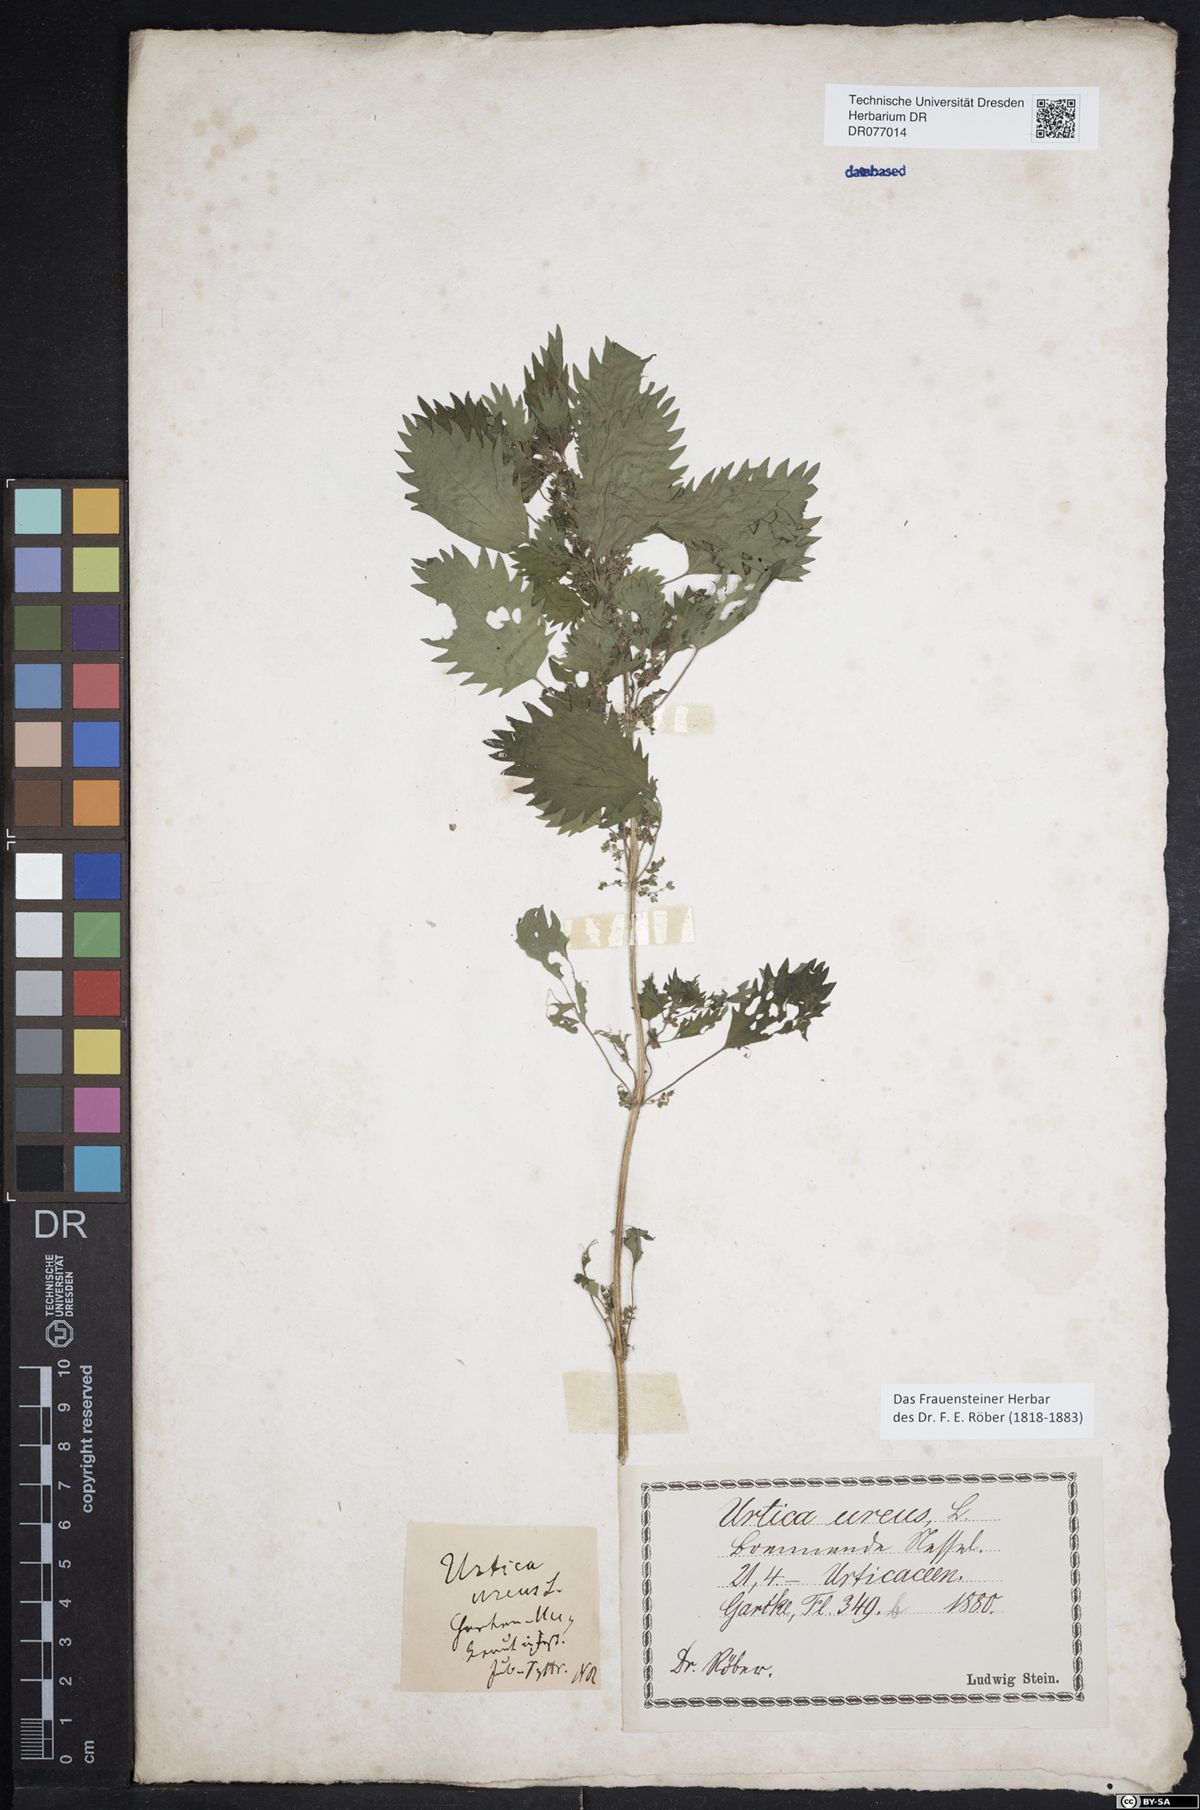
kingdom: Plantae
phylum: Tracheophyta
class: Magnoliopsida
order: Rosales
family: Urticaceae
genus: Urtica
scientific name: Urtica urens
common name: Dwarf nettle
